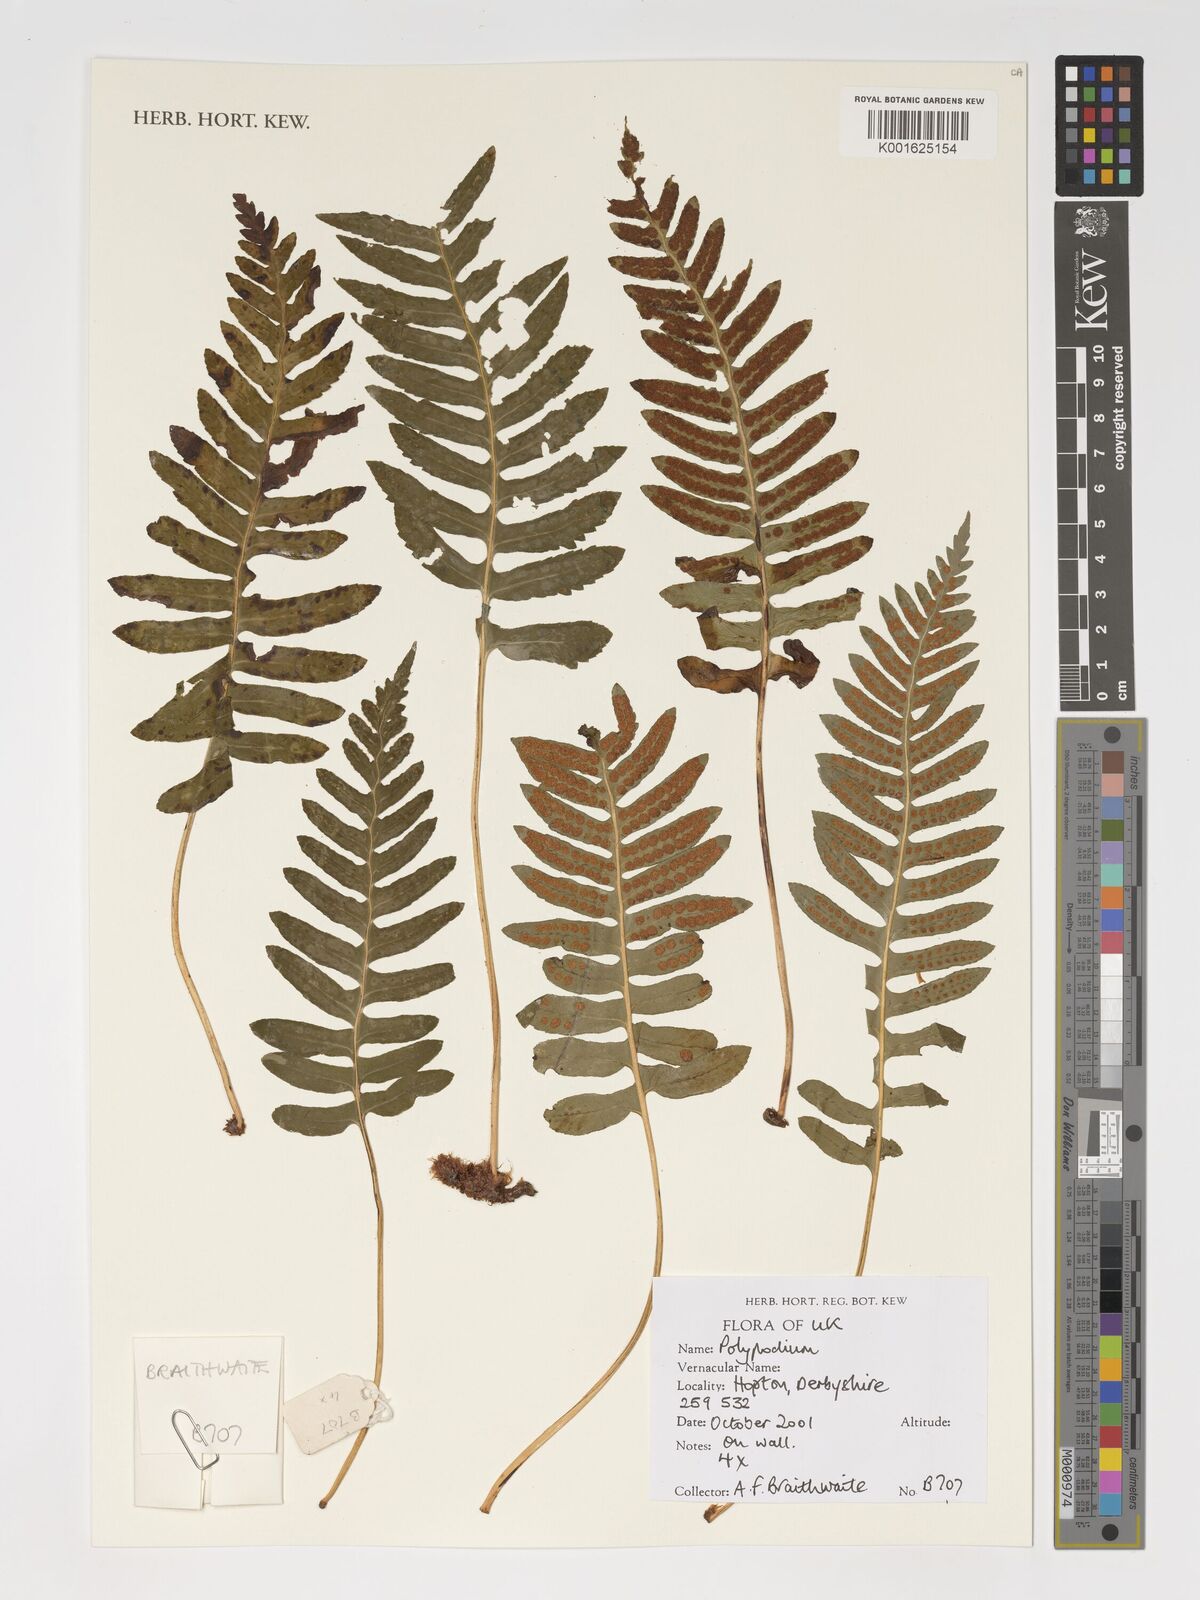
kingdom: Plantae
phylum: Tracheophyta
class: Polypodiopsida
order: Polypodiales
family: Polypodiaceae
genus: Polypodium
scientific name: Polypodium
